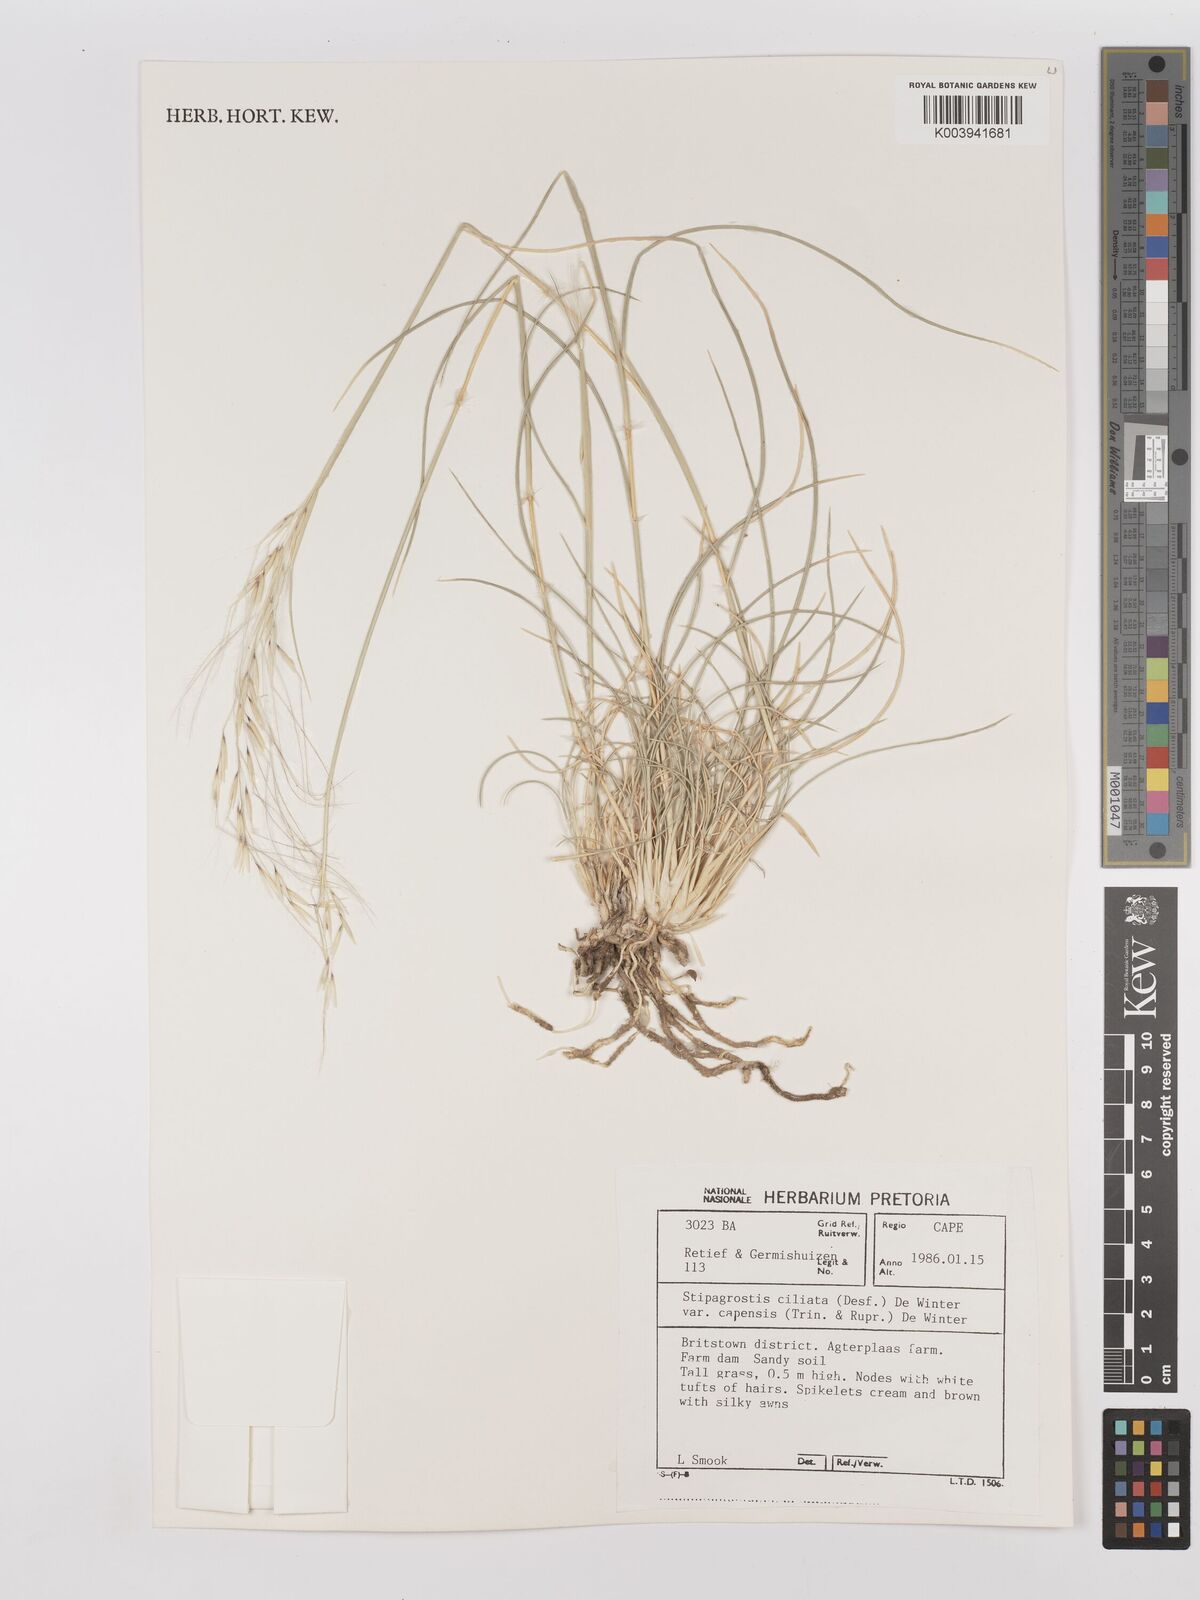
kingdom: Plantae
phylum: Tracheophyta
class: Liliopsida
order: Poales
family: Poaceae
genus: Stipagrostis
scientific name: Stipagrostis ciliata
